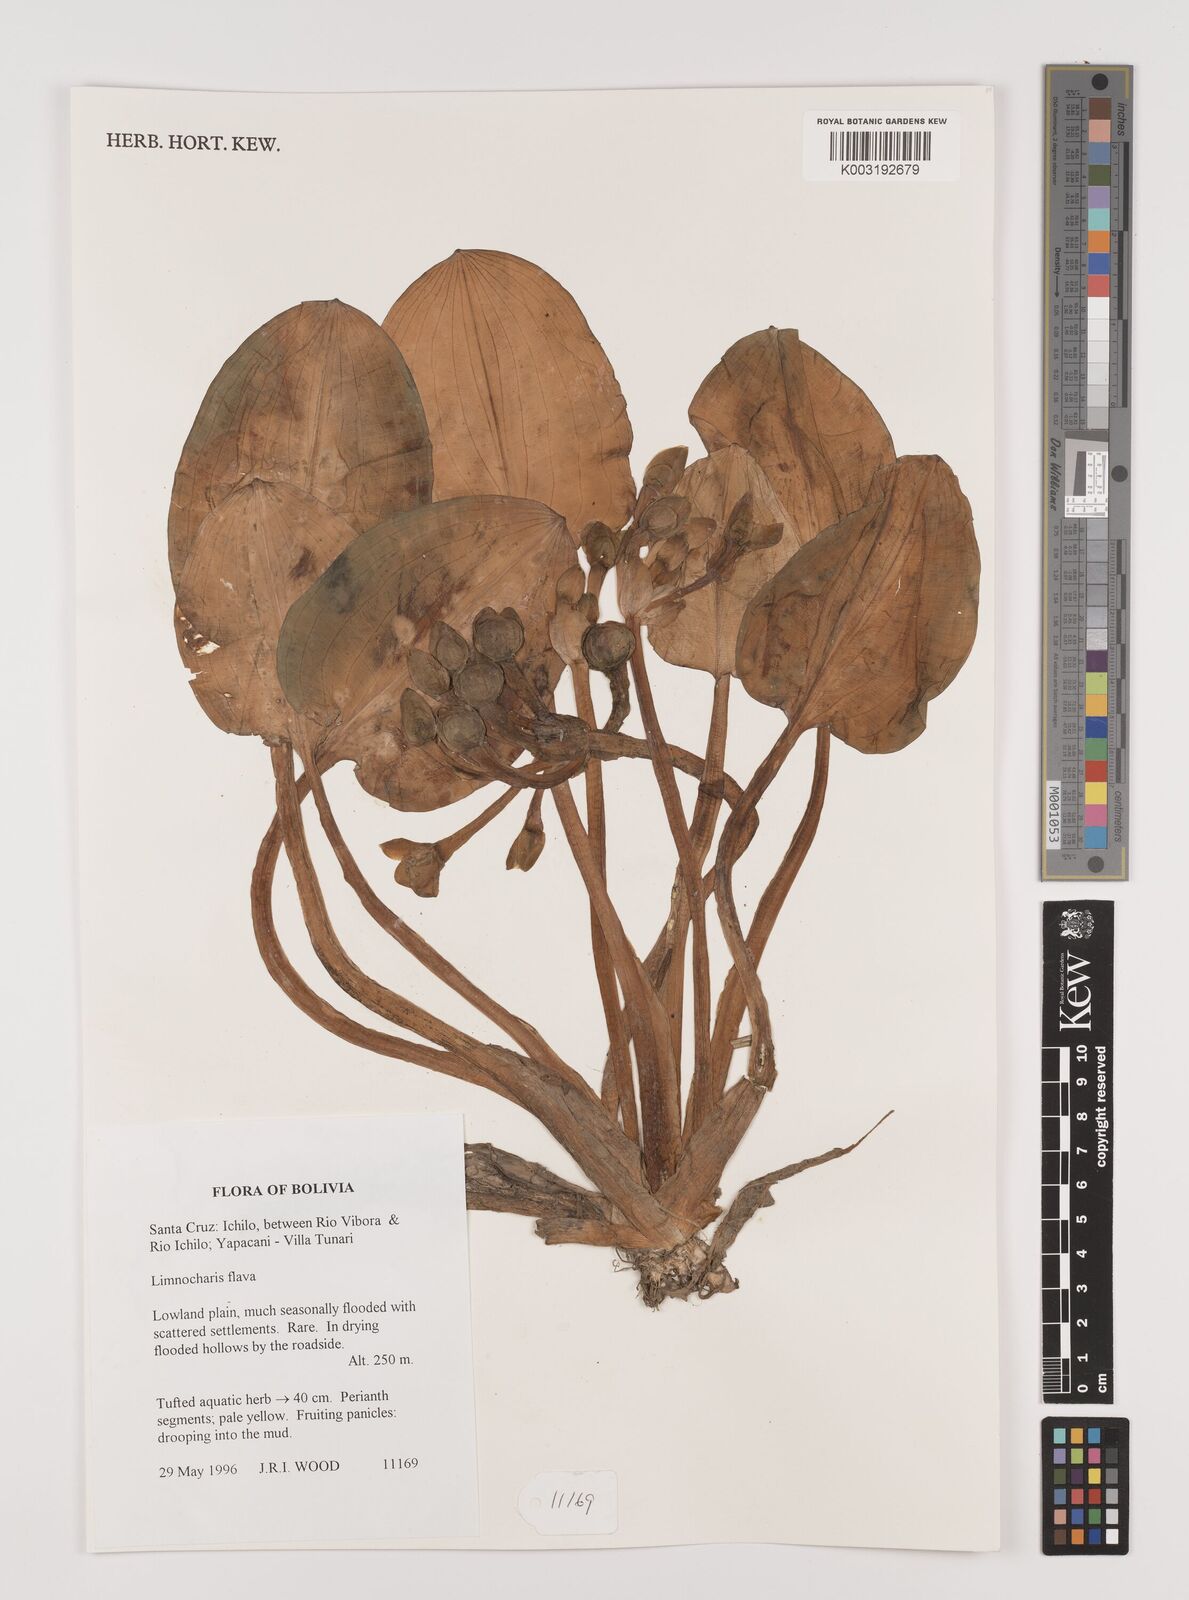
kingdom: Plantae
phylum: Tracheophyta
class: Liliopsida
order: Alismatales
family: Alismataceae
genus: Limnocharis
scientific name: Limnocharis flava
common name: Sawah-flower-rush
